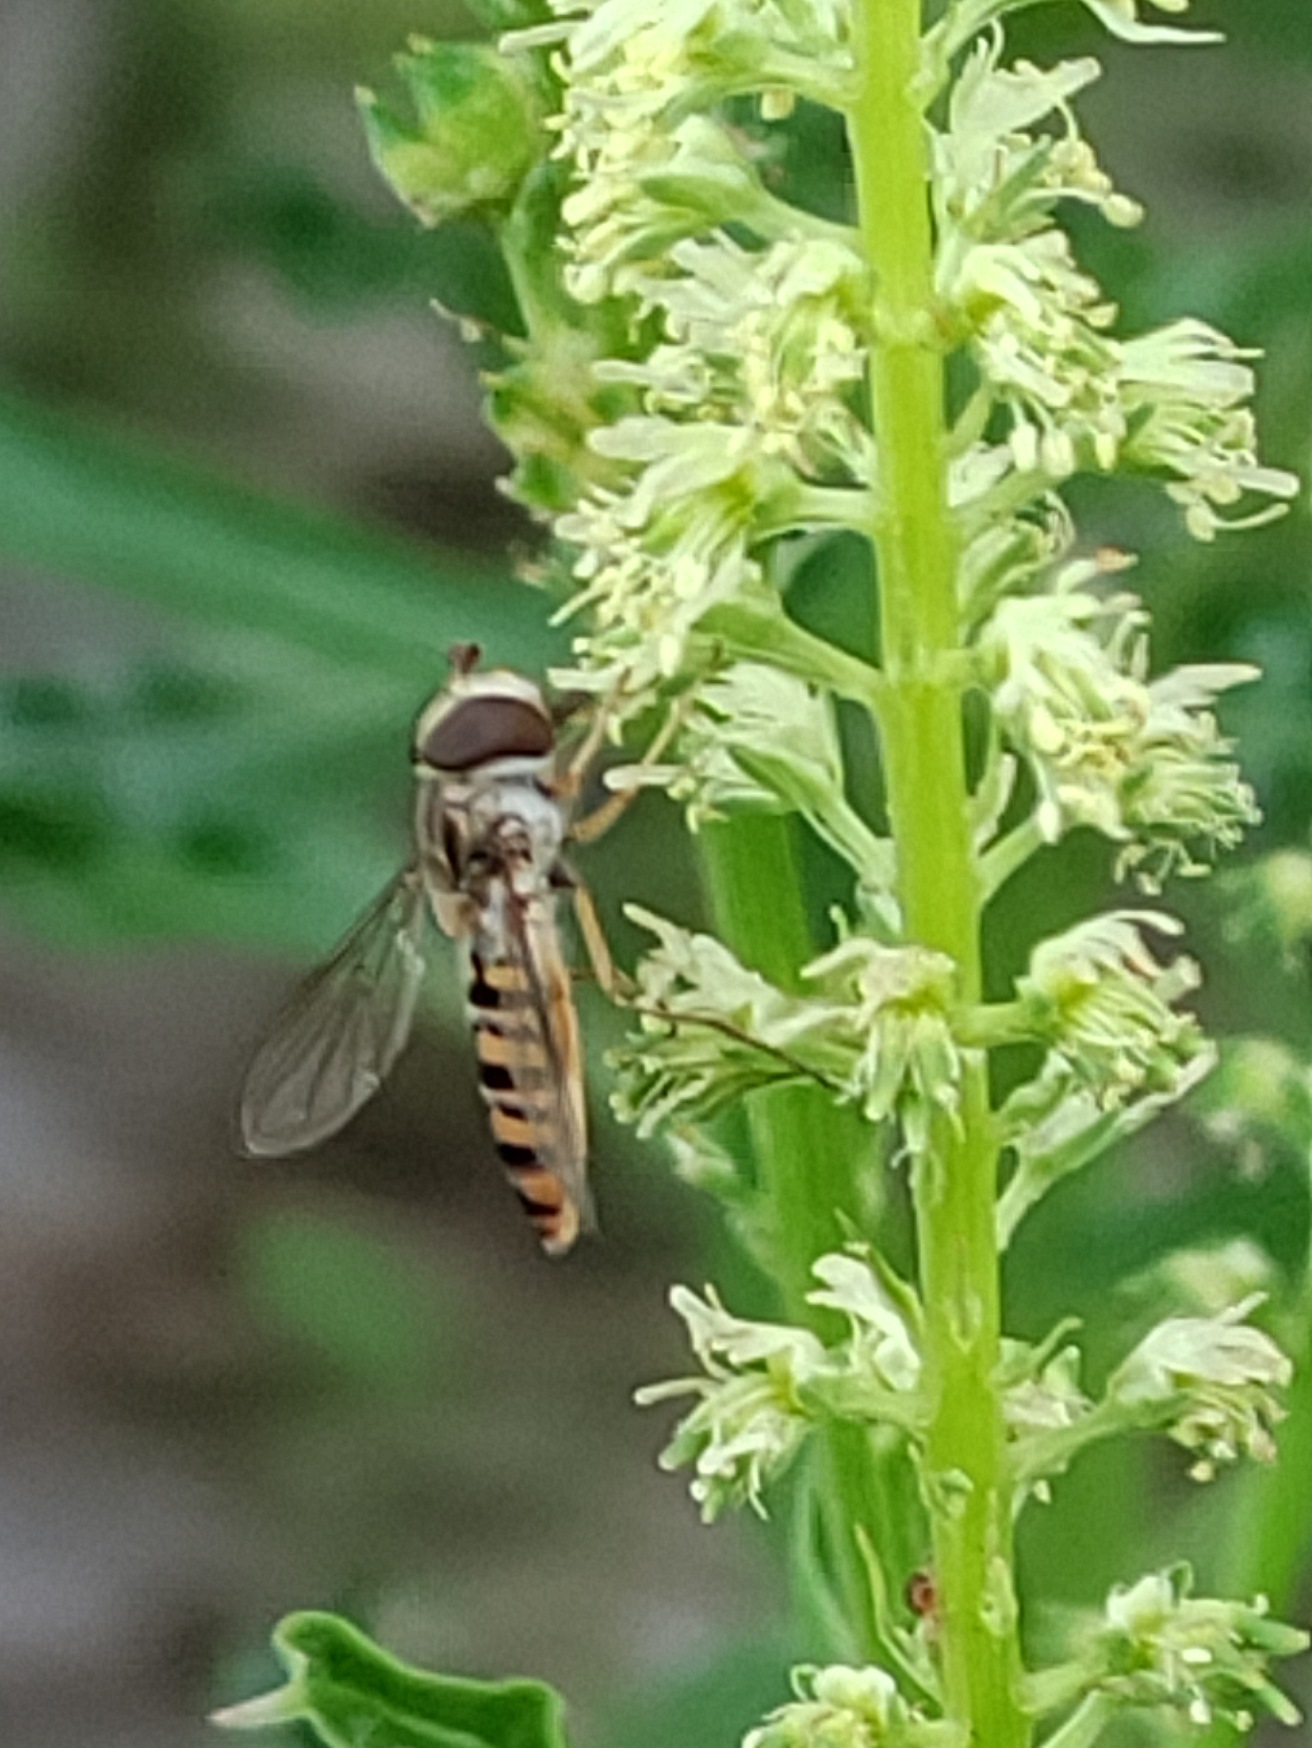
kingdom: Plantae
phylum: Tracheophyta
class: Magnoliopsida
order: Brassicales
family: Resedaceae
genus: Reseda
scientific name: Reseda luteola
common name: Farve-reseda
